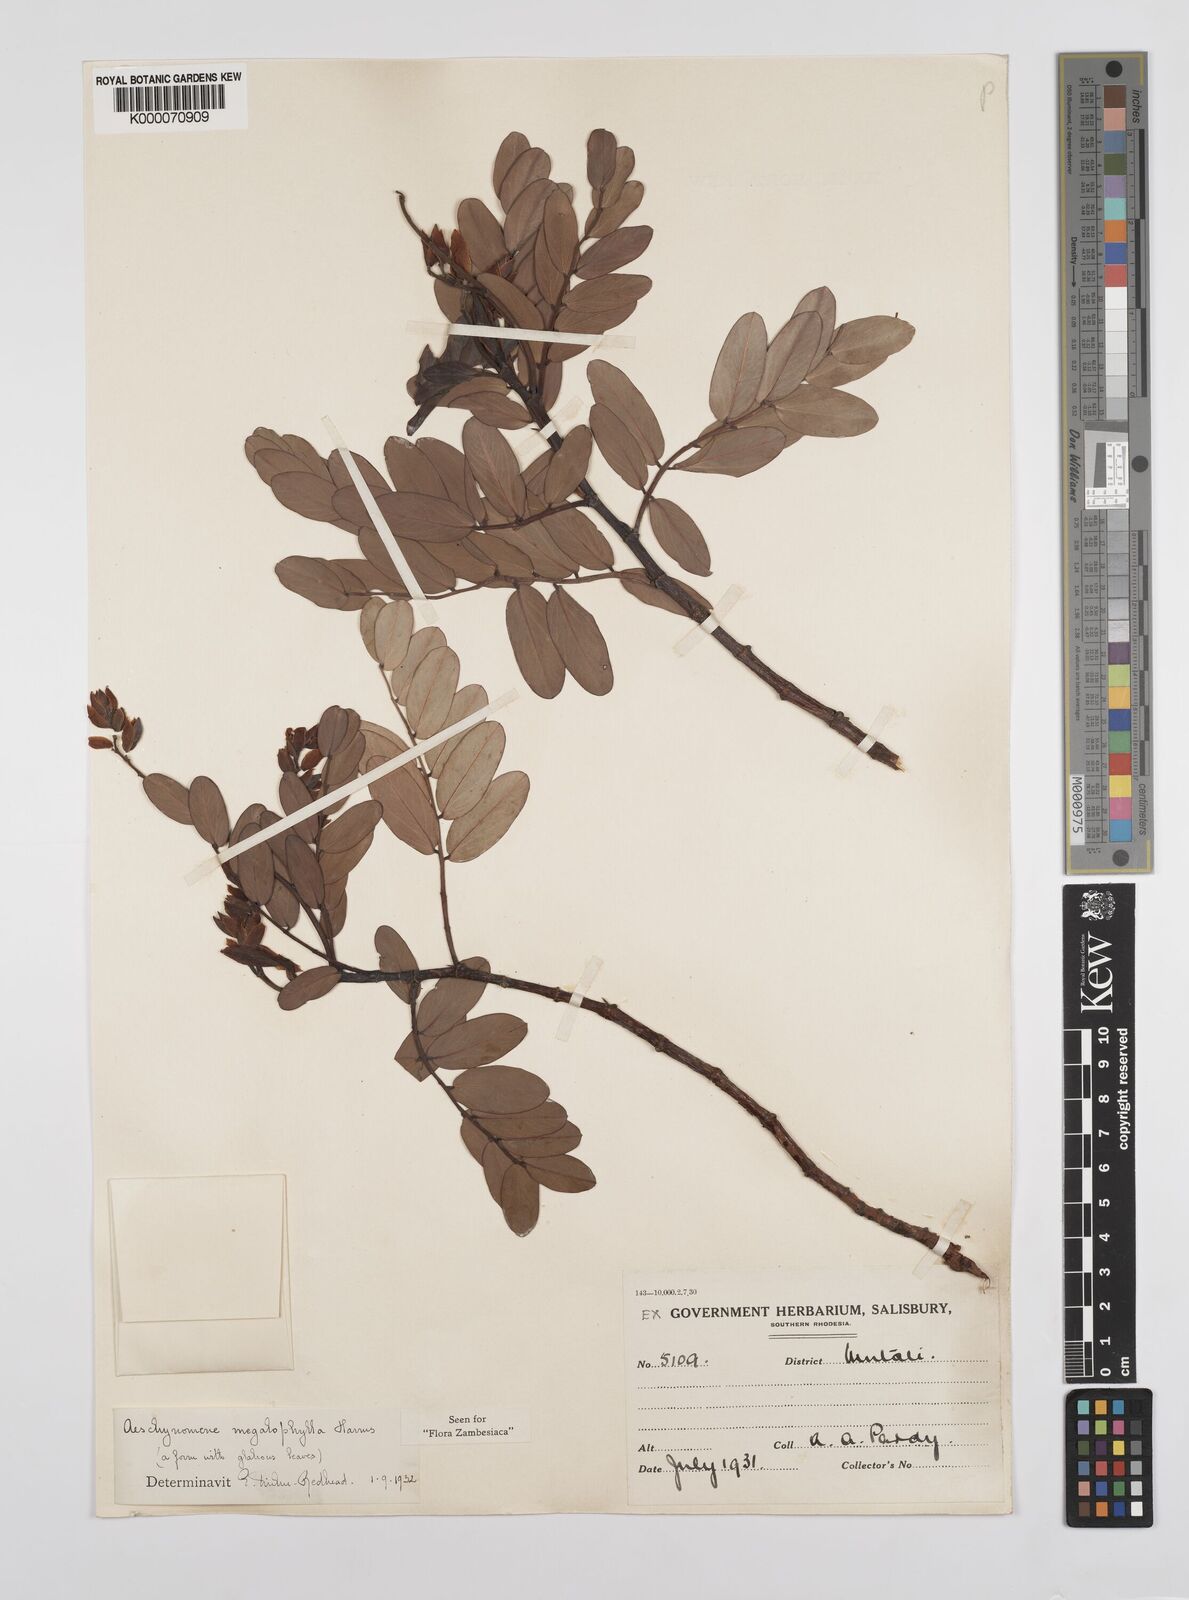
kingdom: Plantae
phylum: Tracheophyta
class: Magnoliopsida
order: Fabales
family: Fabaceae
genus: Aeschynomene
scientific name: Aeschynomene megalophylla
